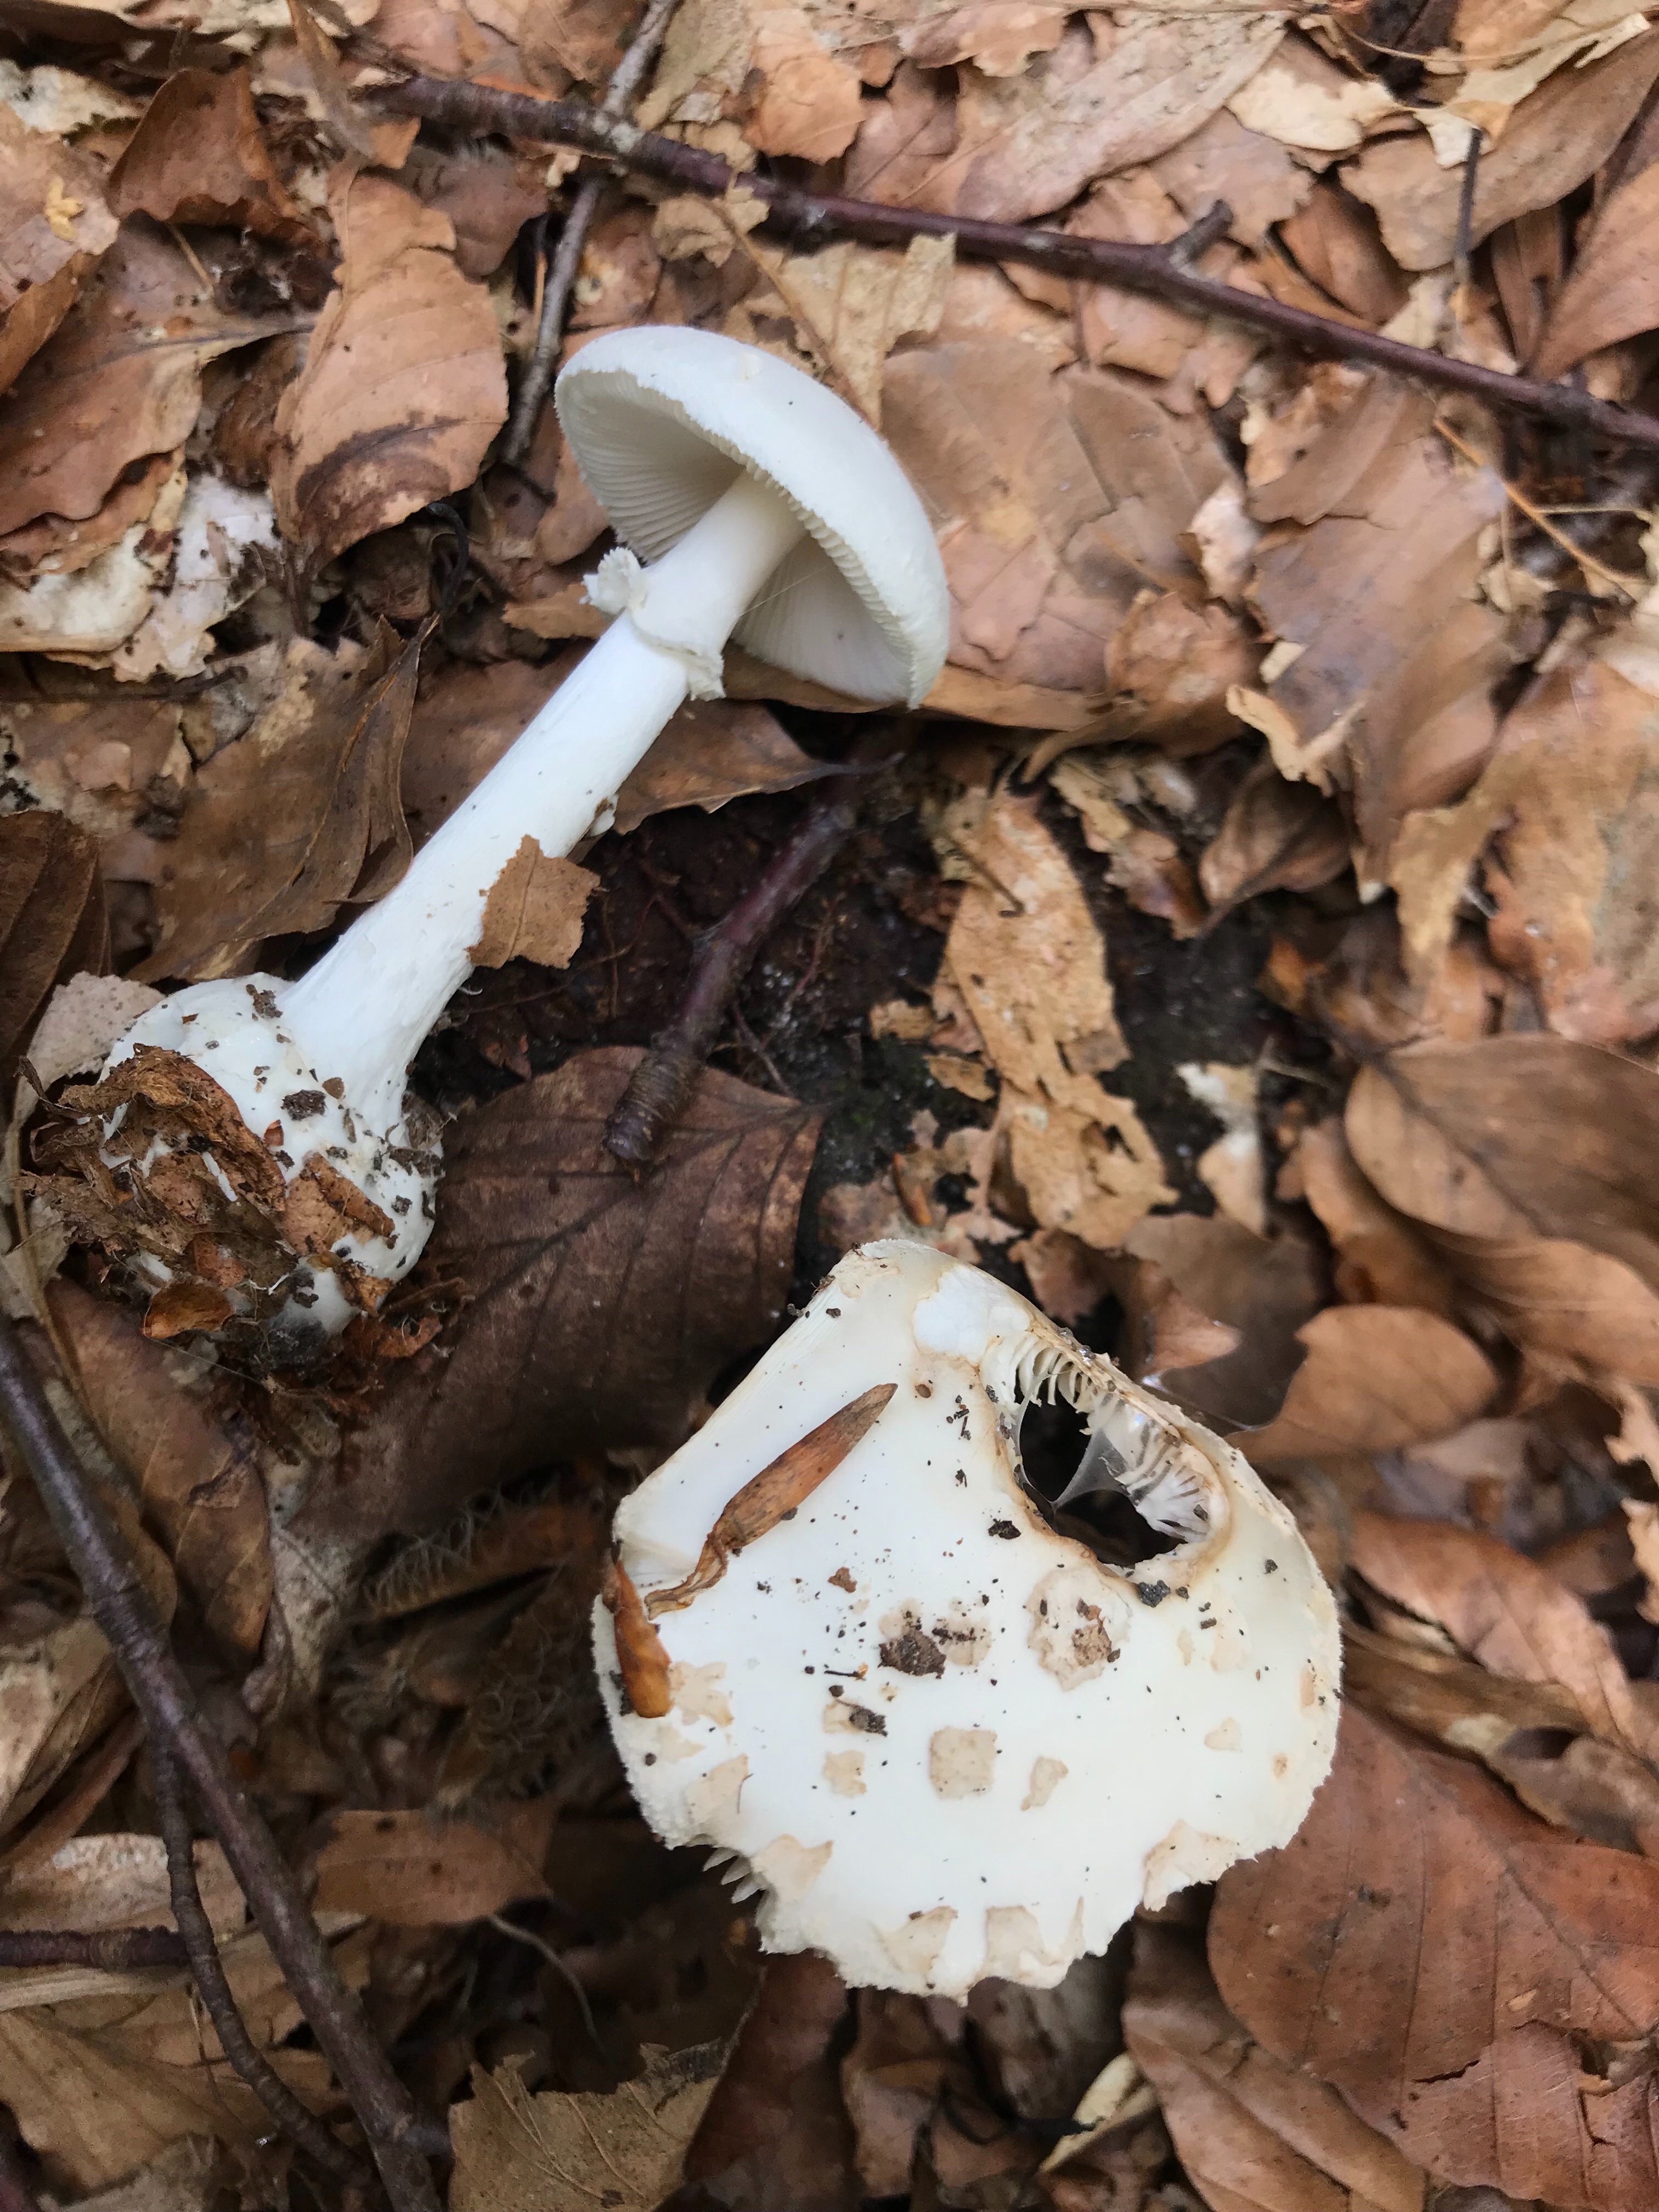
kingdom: Fungi
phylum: Basidiomycota
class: Agaricomycetes
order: Agaricales
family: Amanitaceae
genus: Amanita
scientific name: Amanita citrina
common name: False death-cap
